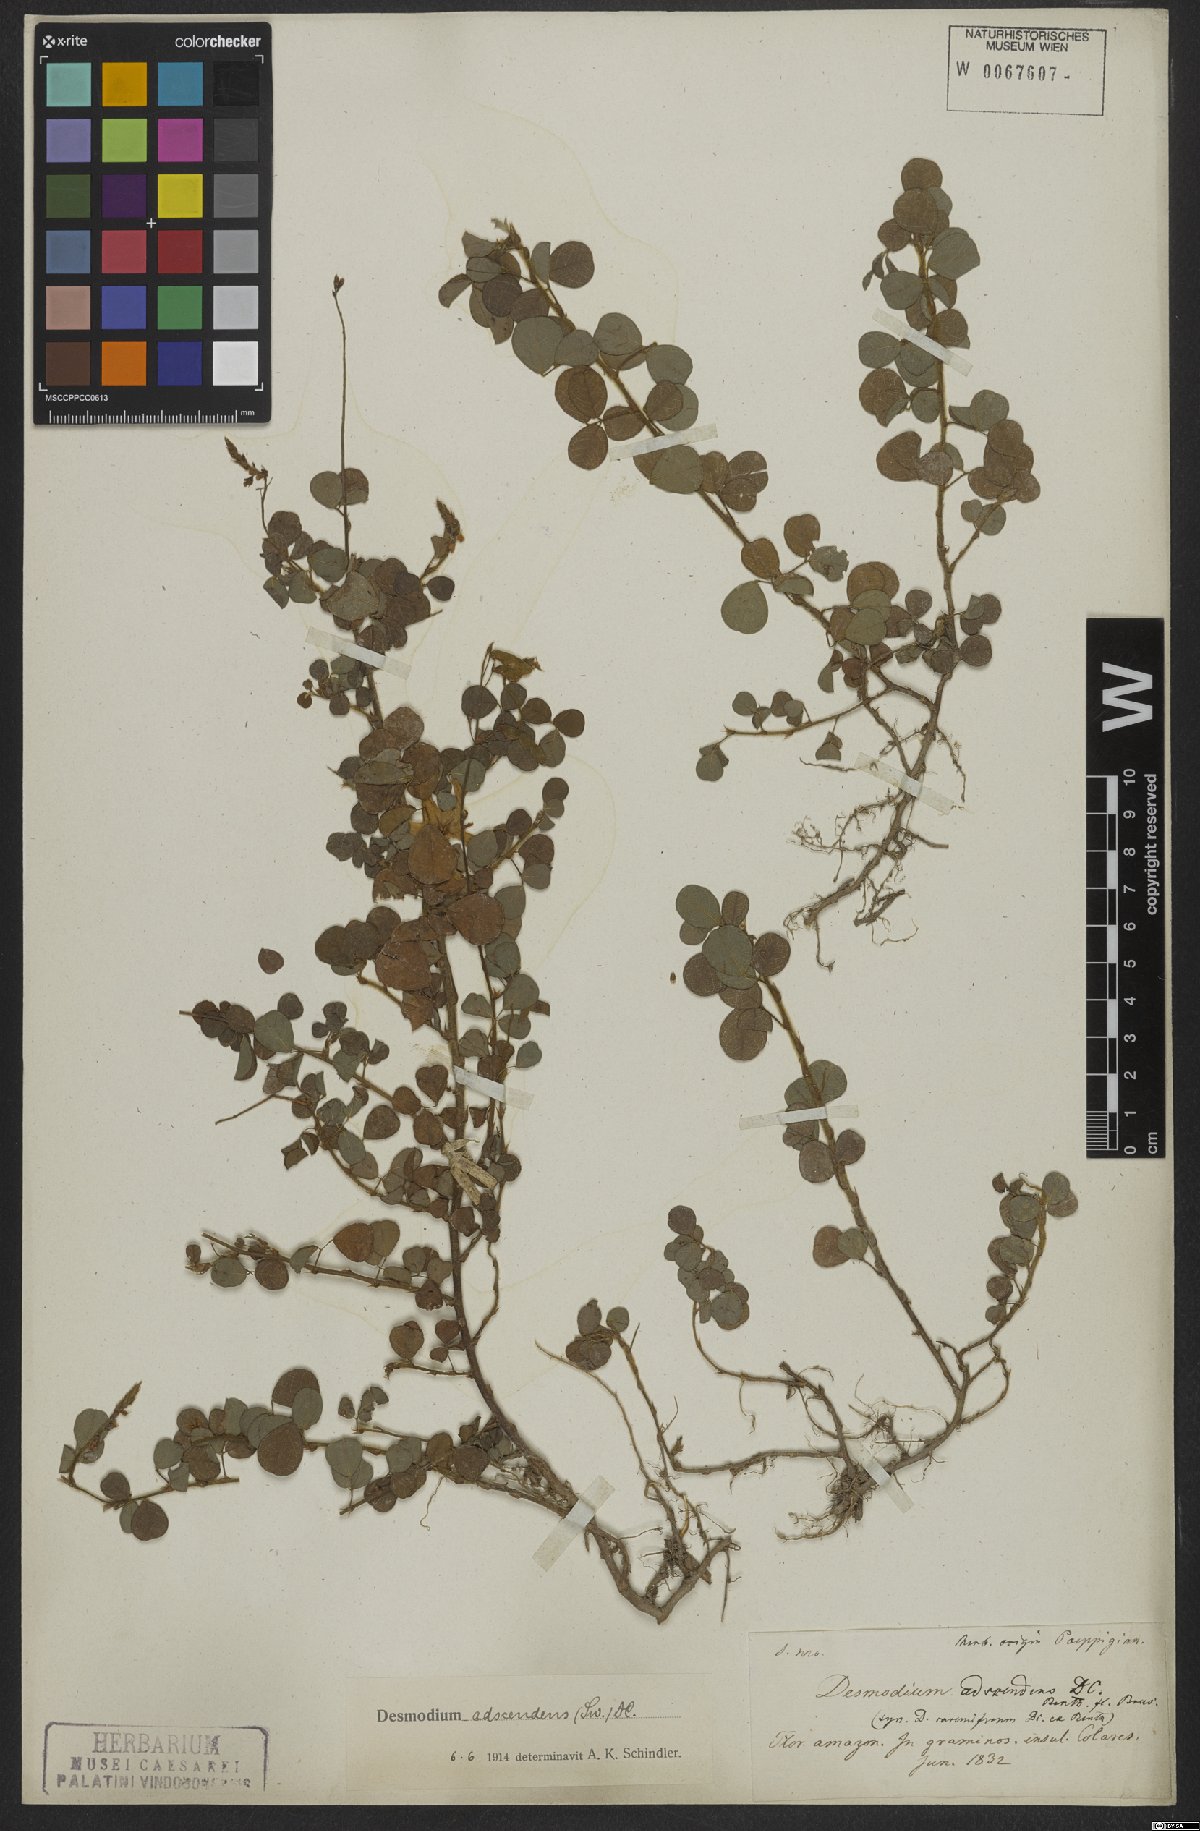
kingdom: Plantae
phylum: Tracheophyta
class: Magnoliopsida
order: Fabales
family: Fabaceae
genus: Grona
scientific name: Grona adscendens
